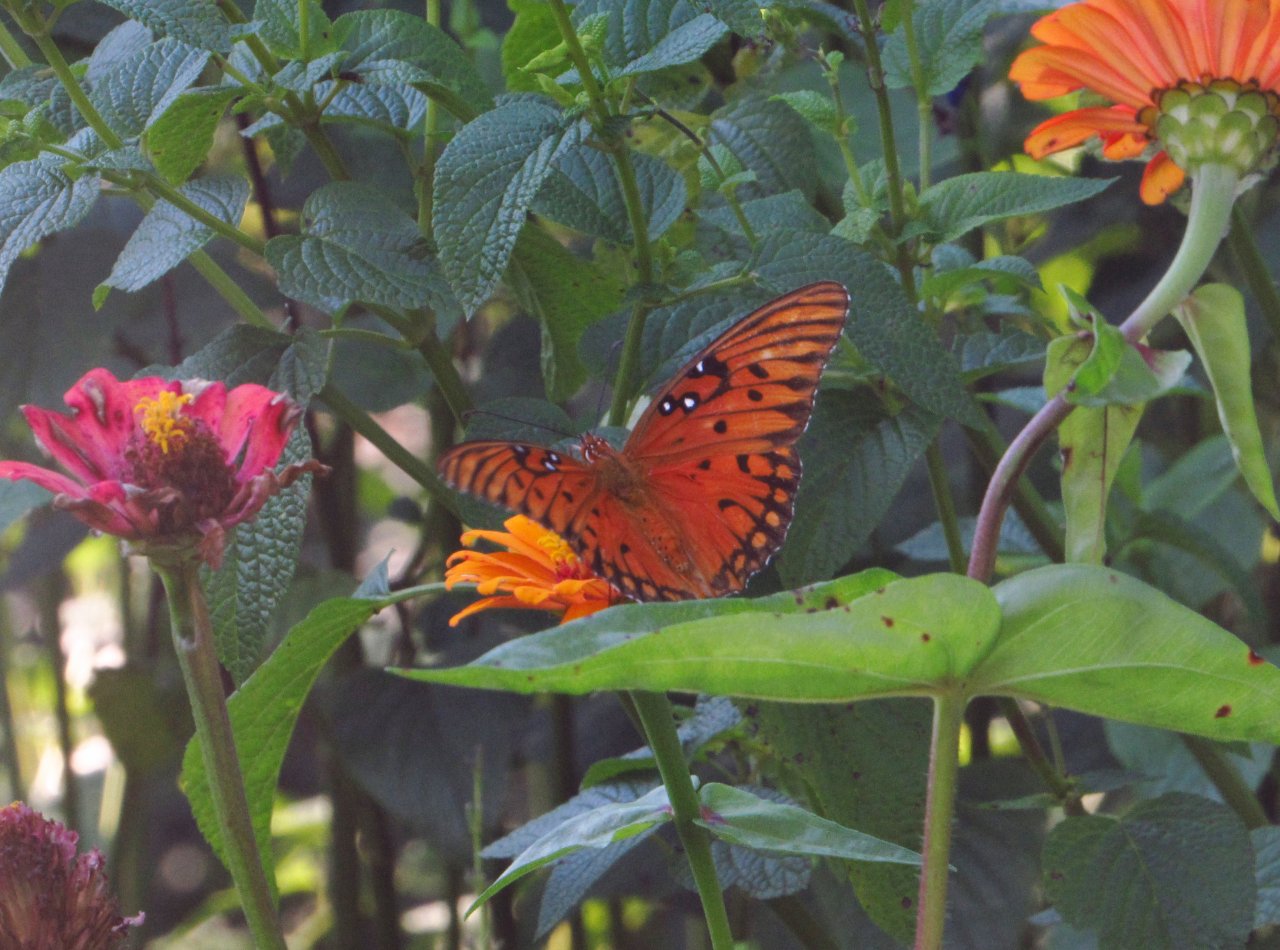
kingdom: Animalia
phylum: Arthropoda
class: Insecta
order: Lepidoptera
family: Nymphalidae
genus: Dione
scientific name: Dione vanillae
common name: Gulf Fritillary
